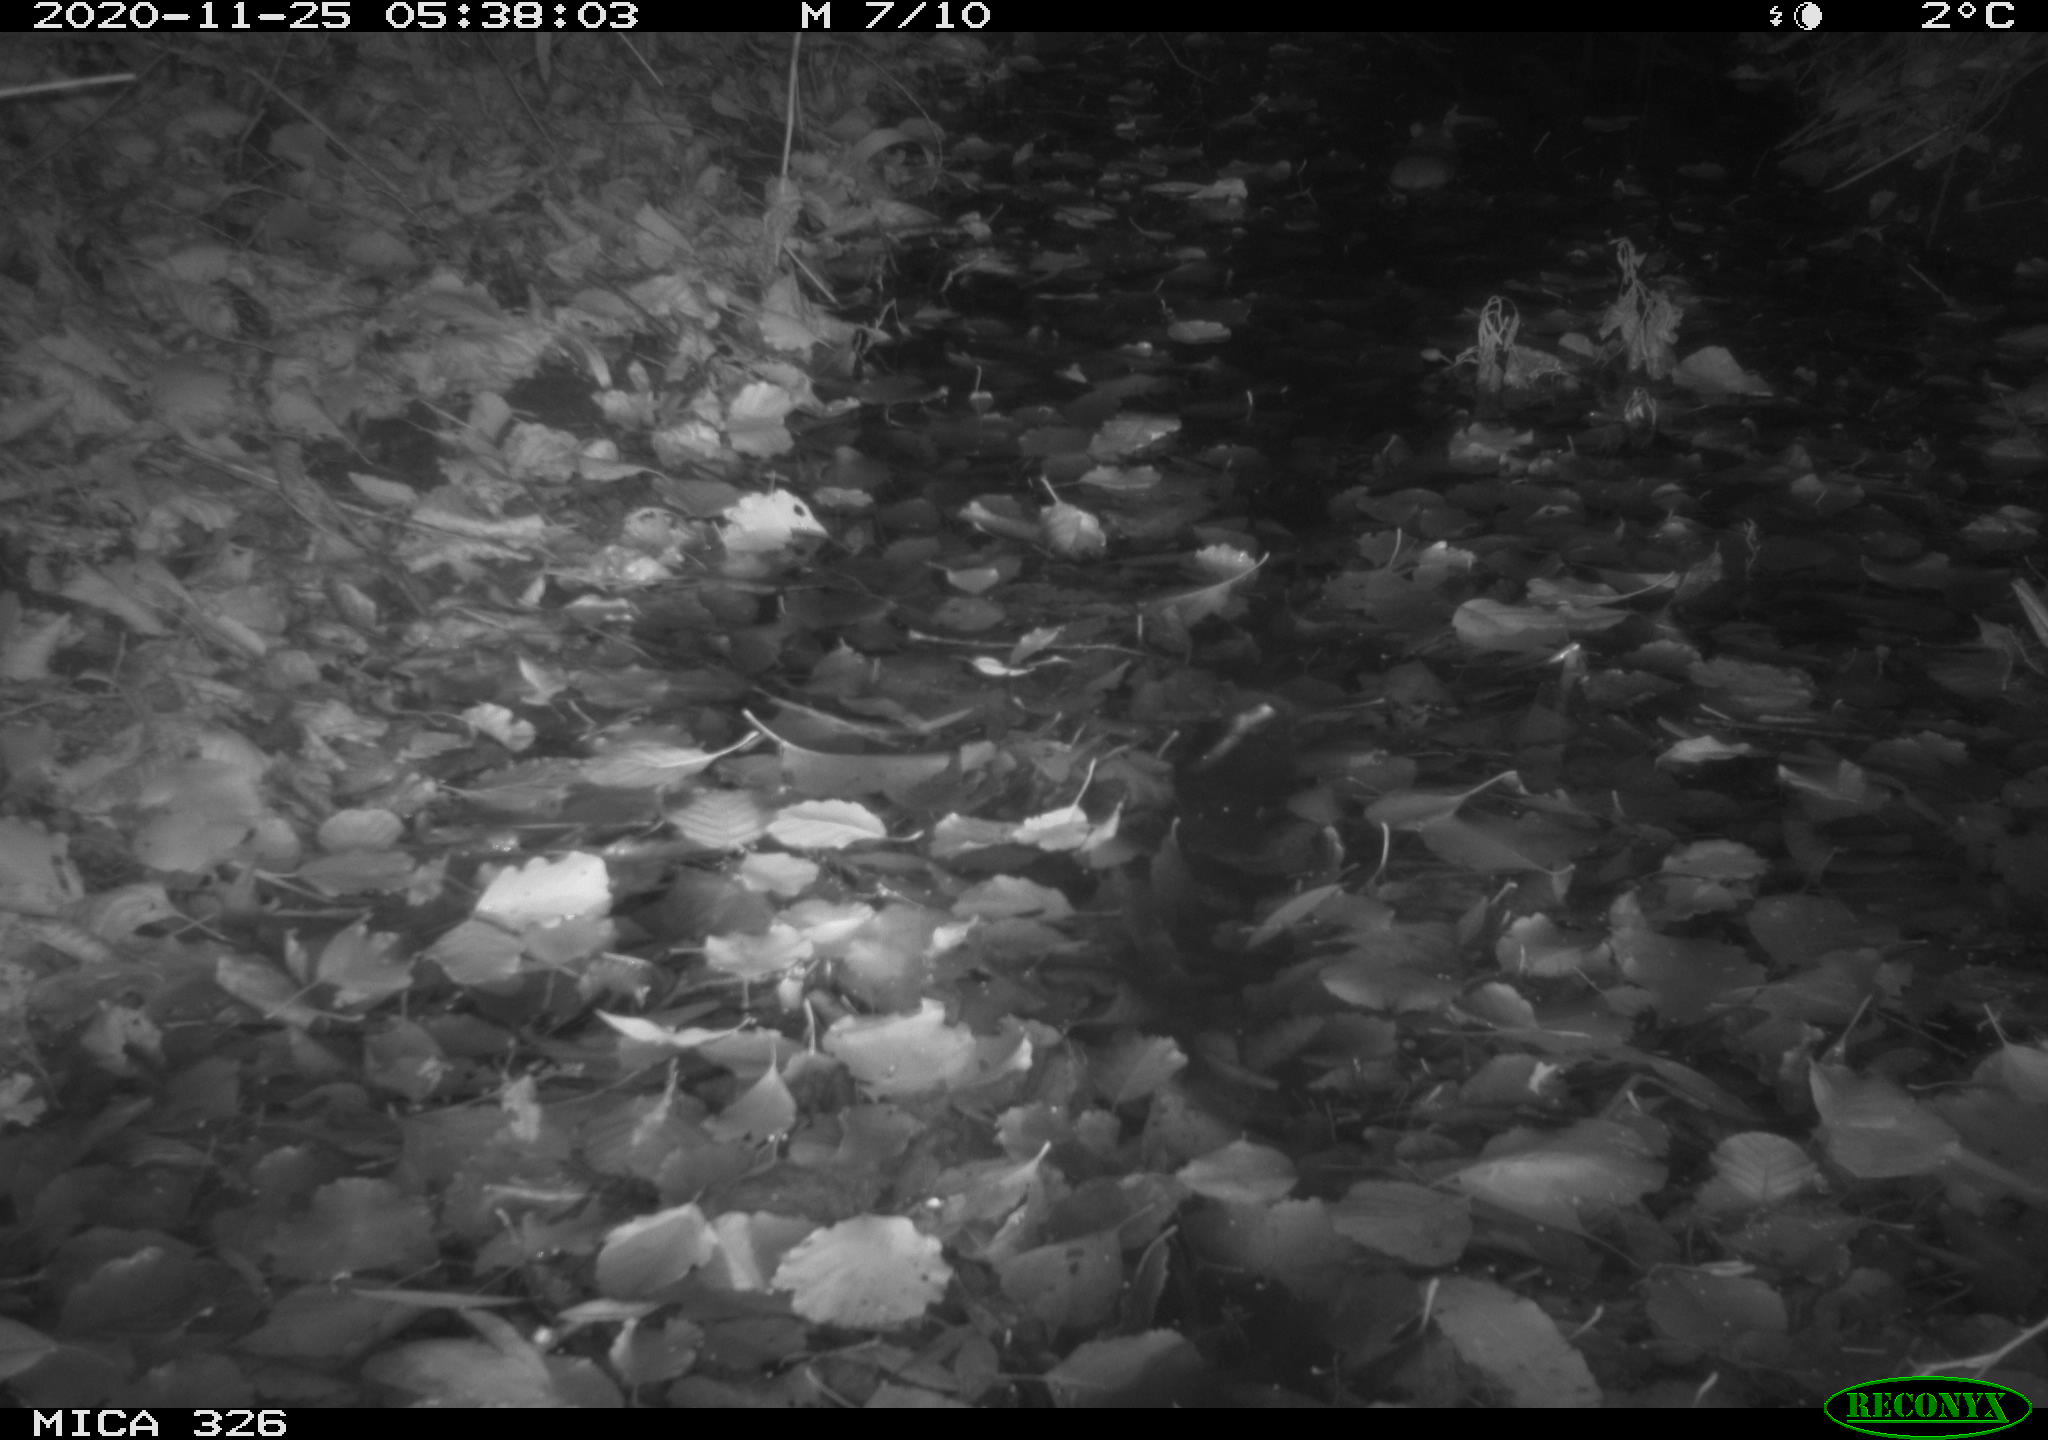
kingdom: Animalia
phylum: Chordata
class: Mammalia
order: Rodentia
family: Muridae
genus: Rattus
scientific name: Rattus norvegicus
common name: Brown rat
